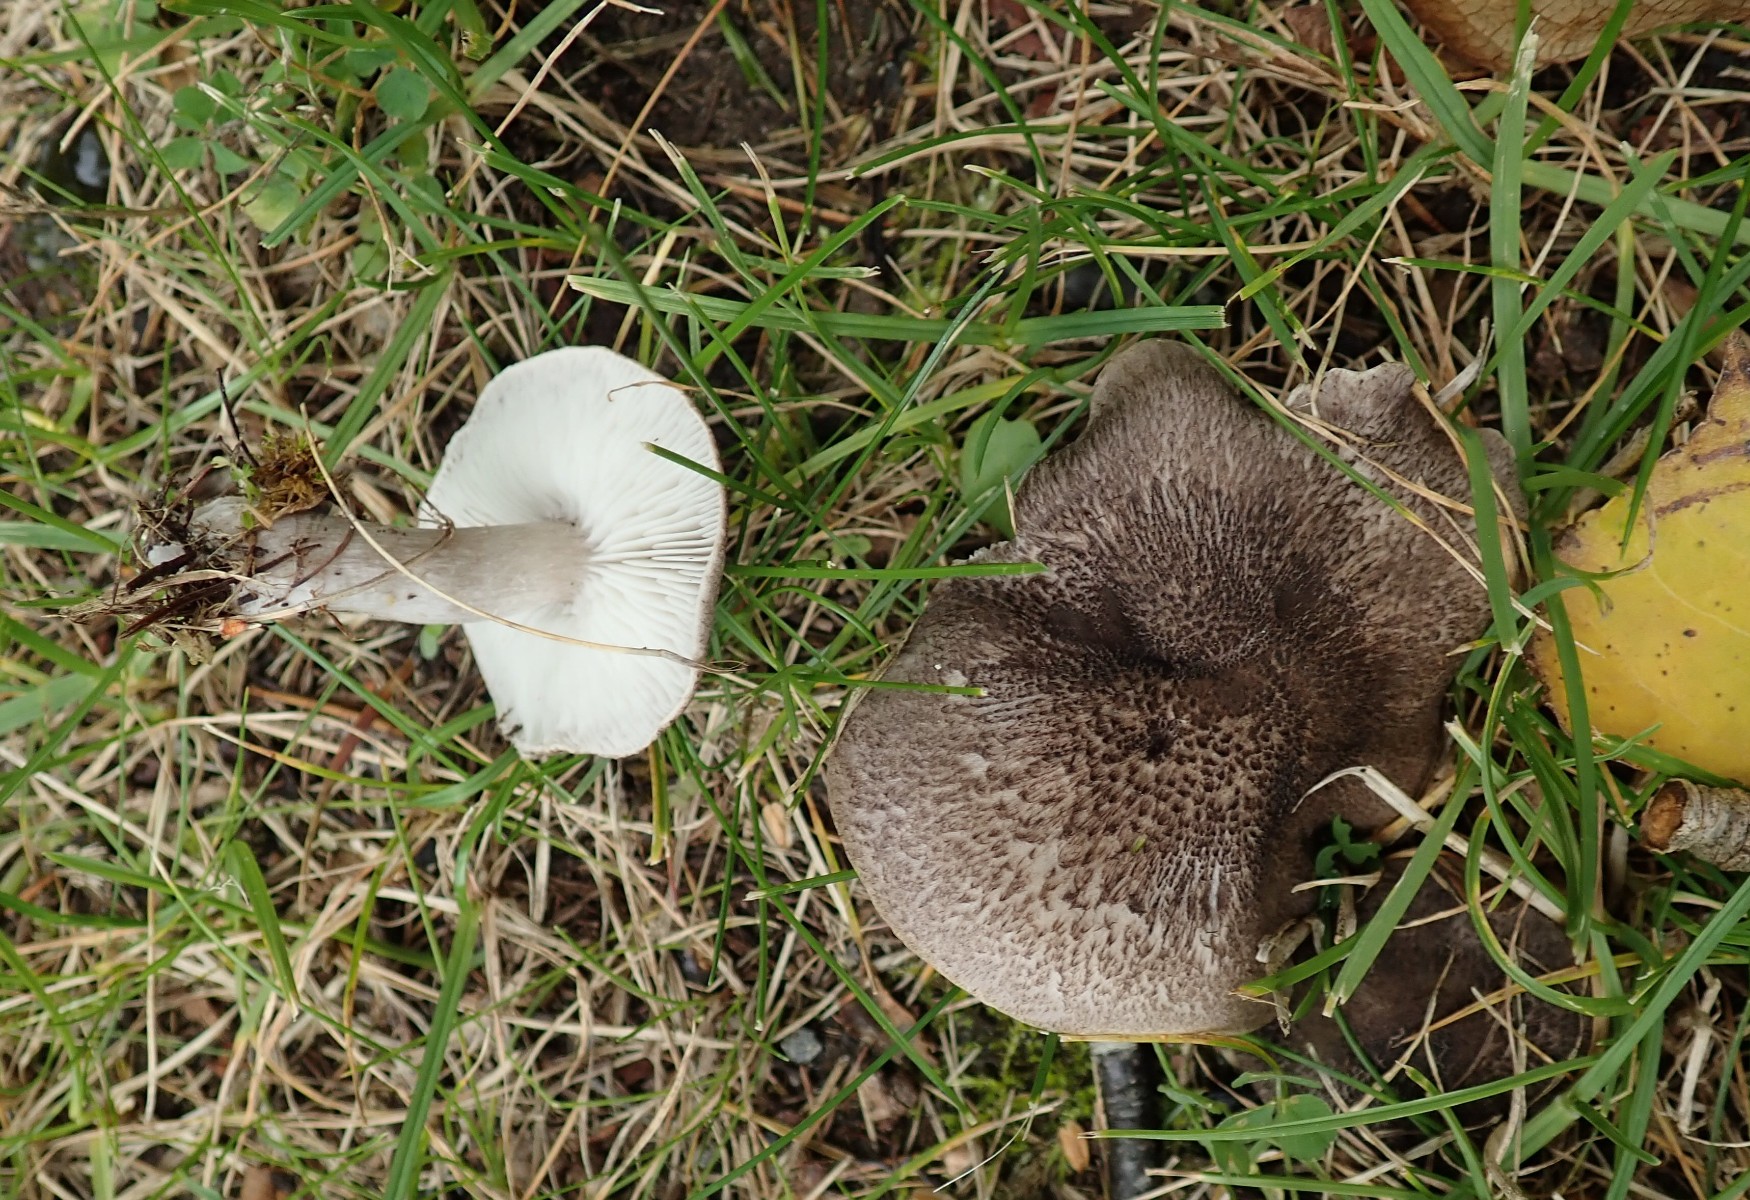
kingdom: Fungi
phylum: Basidiomycota
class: Agaricomycetes
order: Agaricales
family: Tricholomataceae
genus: Tricholoma
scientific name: Tricholoma
